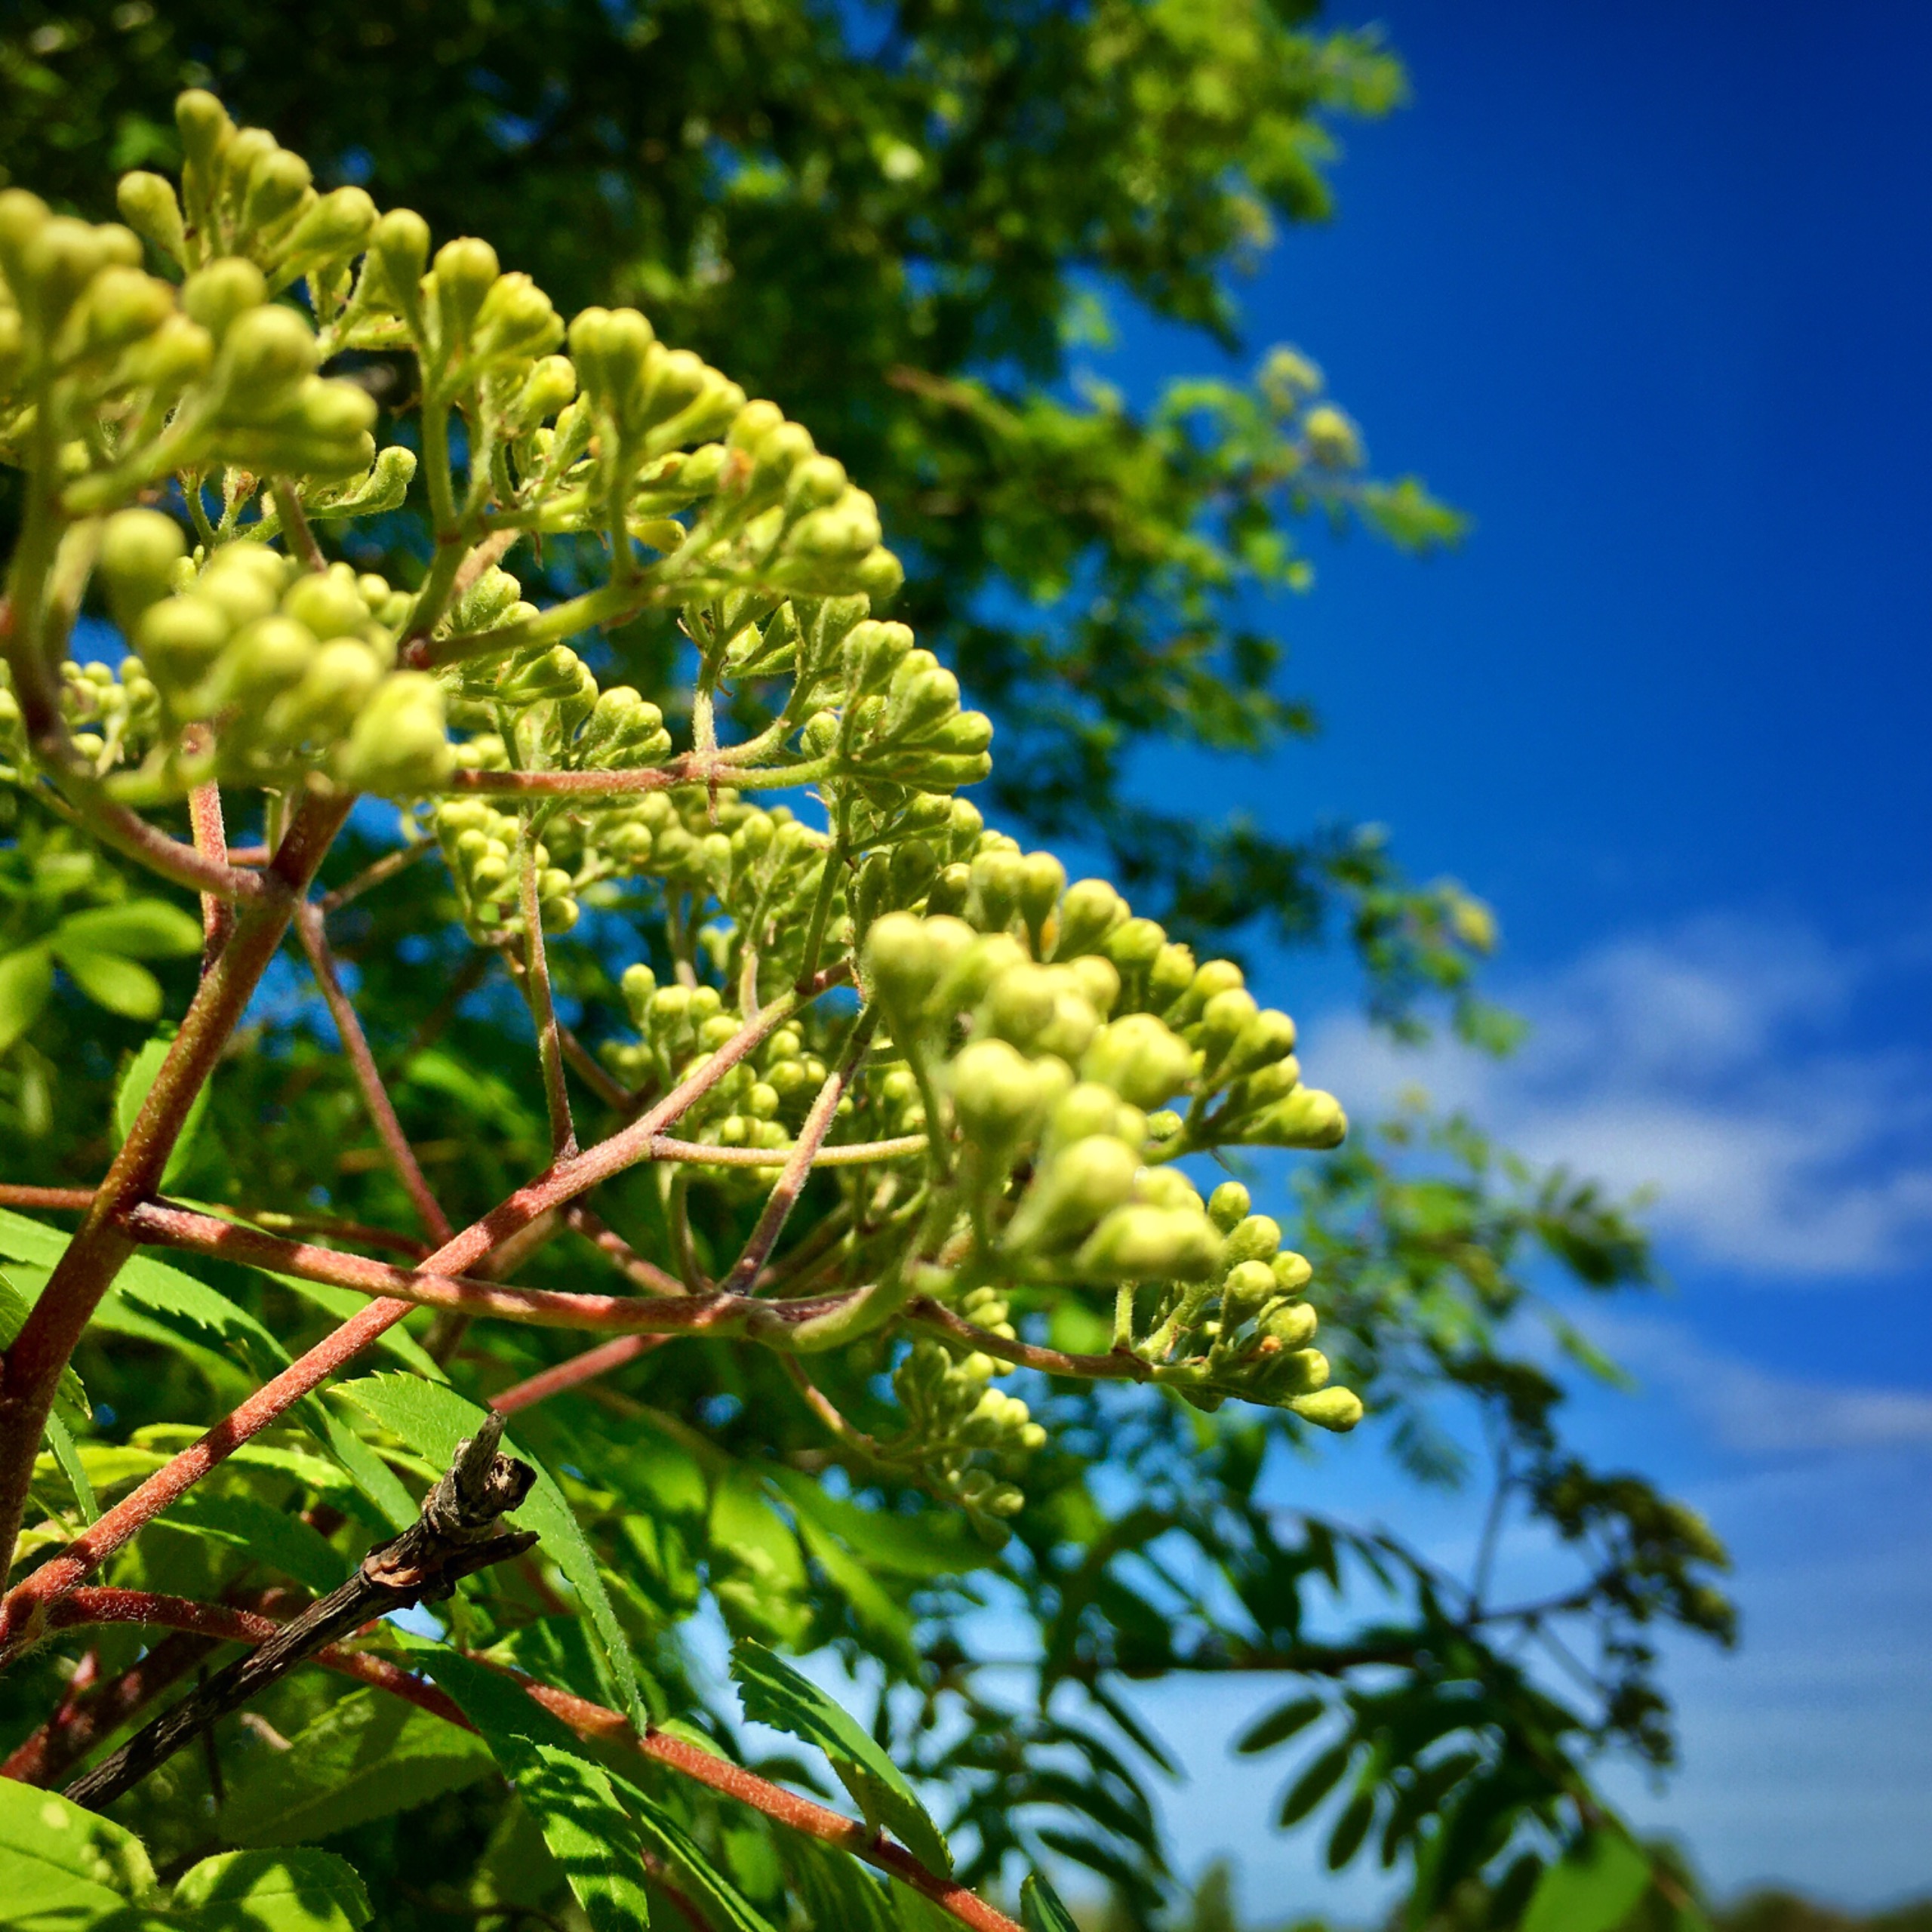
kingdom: Plantae
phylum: Tracheophyta
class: Magnoliopsida
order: Rosales
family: Rosaceae
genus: Sorbus
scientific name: Sorbus aucuparia
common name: Almindelig røn
